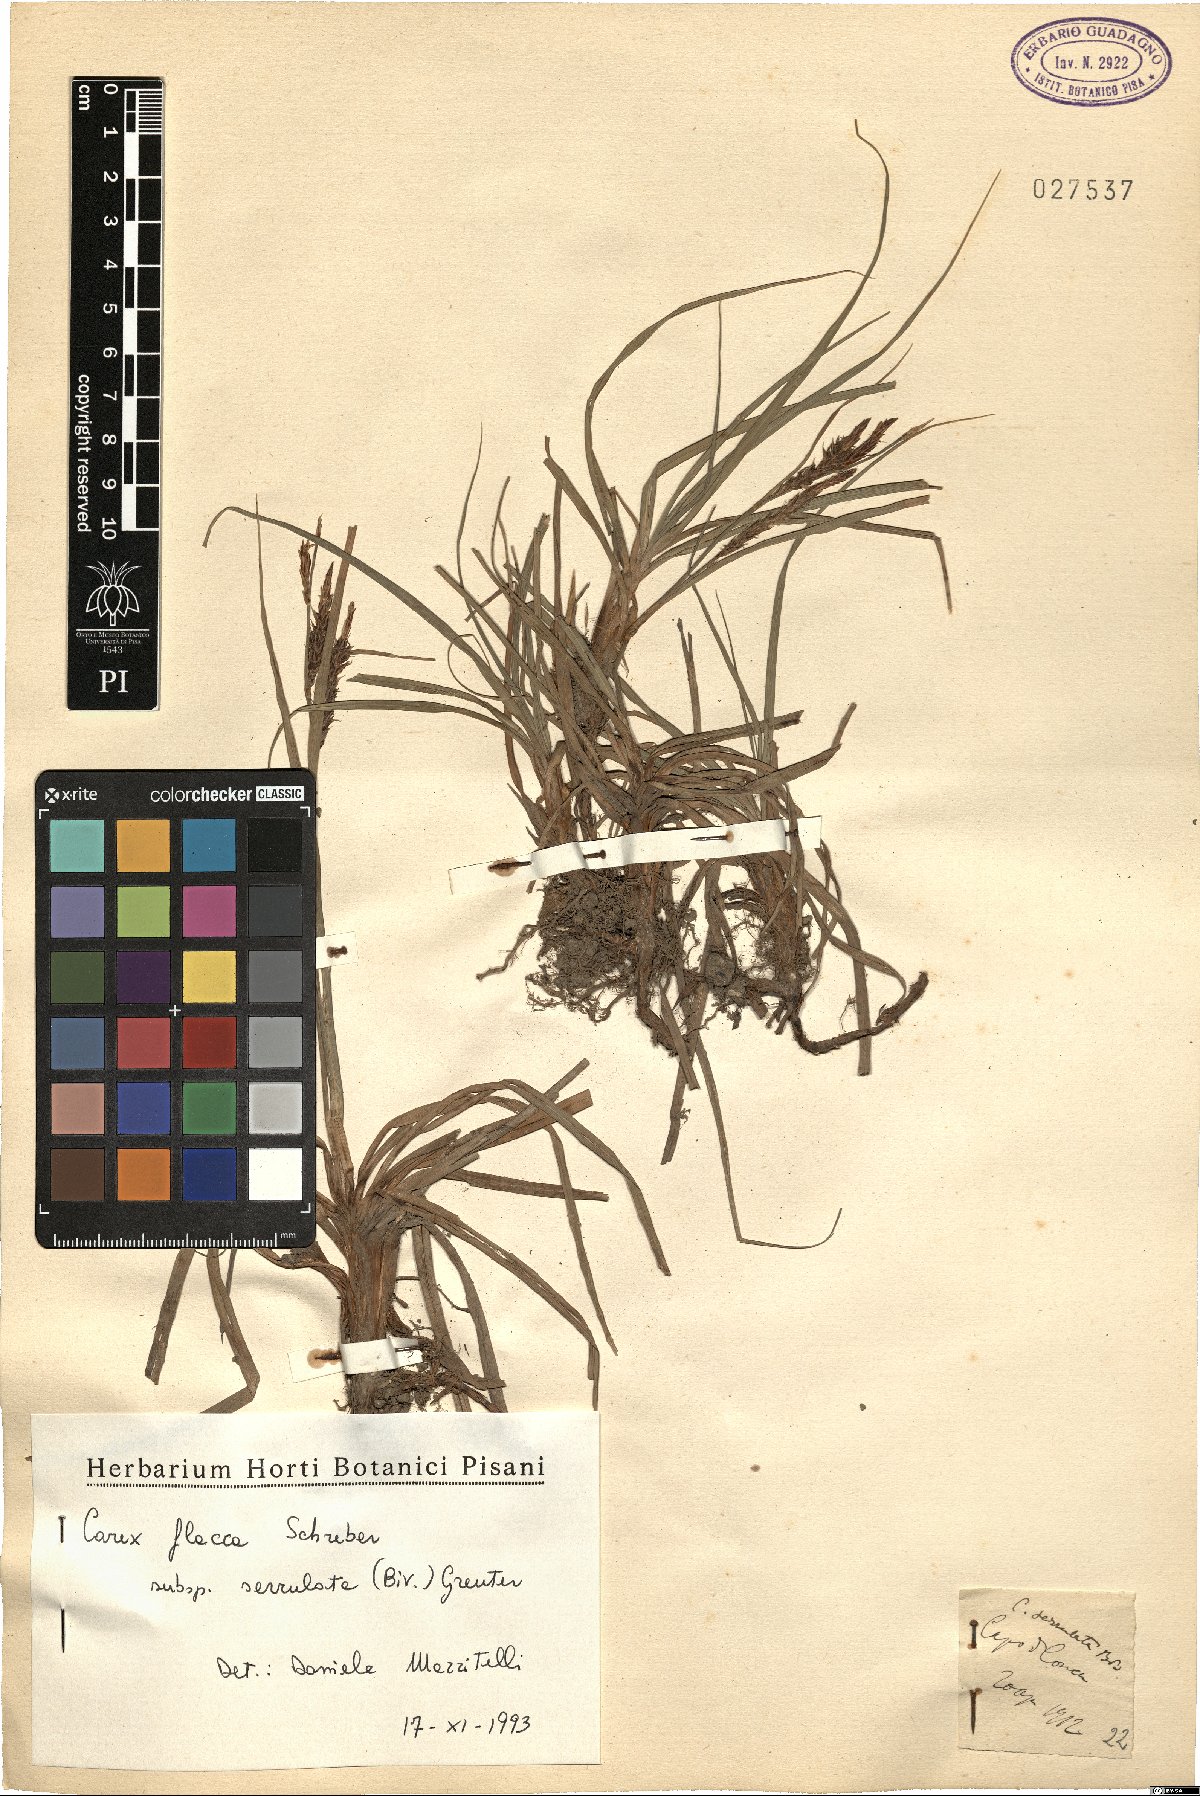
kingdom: Plantae
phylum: Tracheophyta
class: Liliopsida
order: Poales
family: Cyperaceae
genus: Carex
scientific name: Carex flacca
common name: Glaucous sedge
